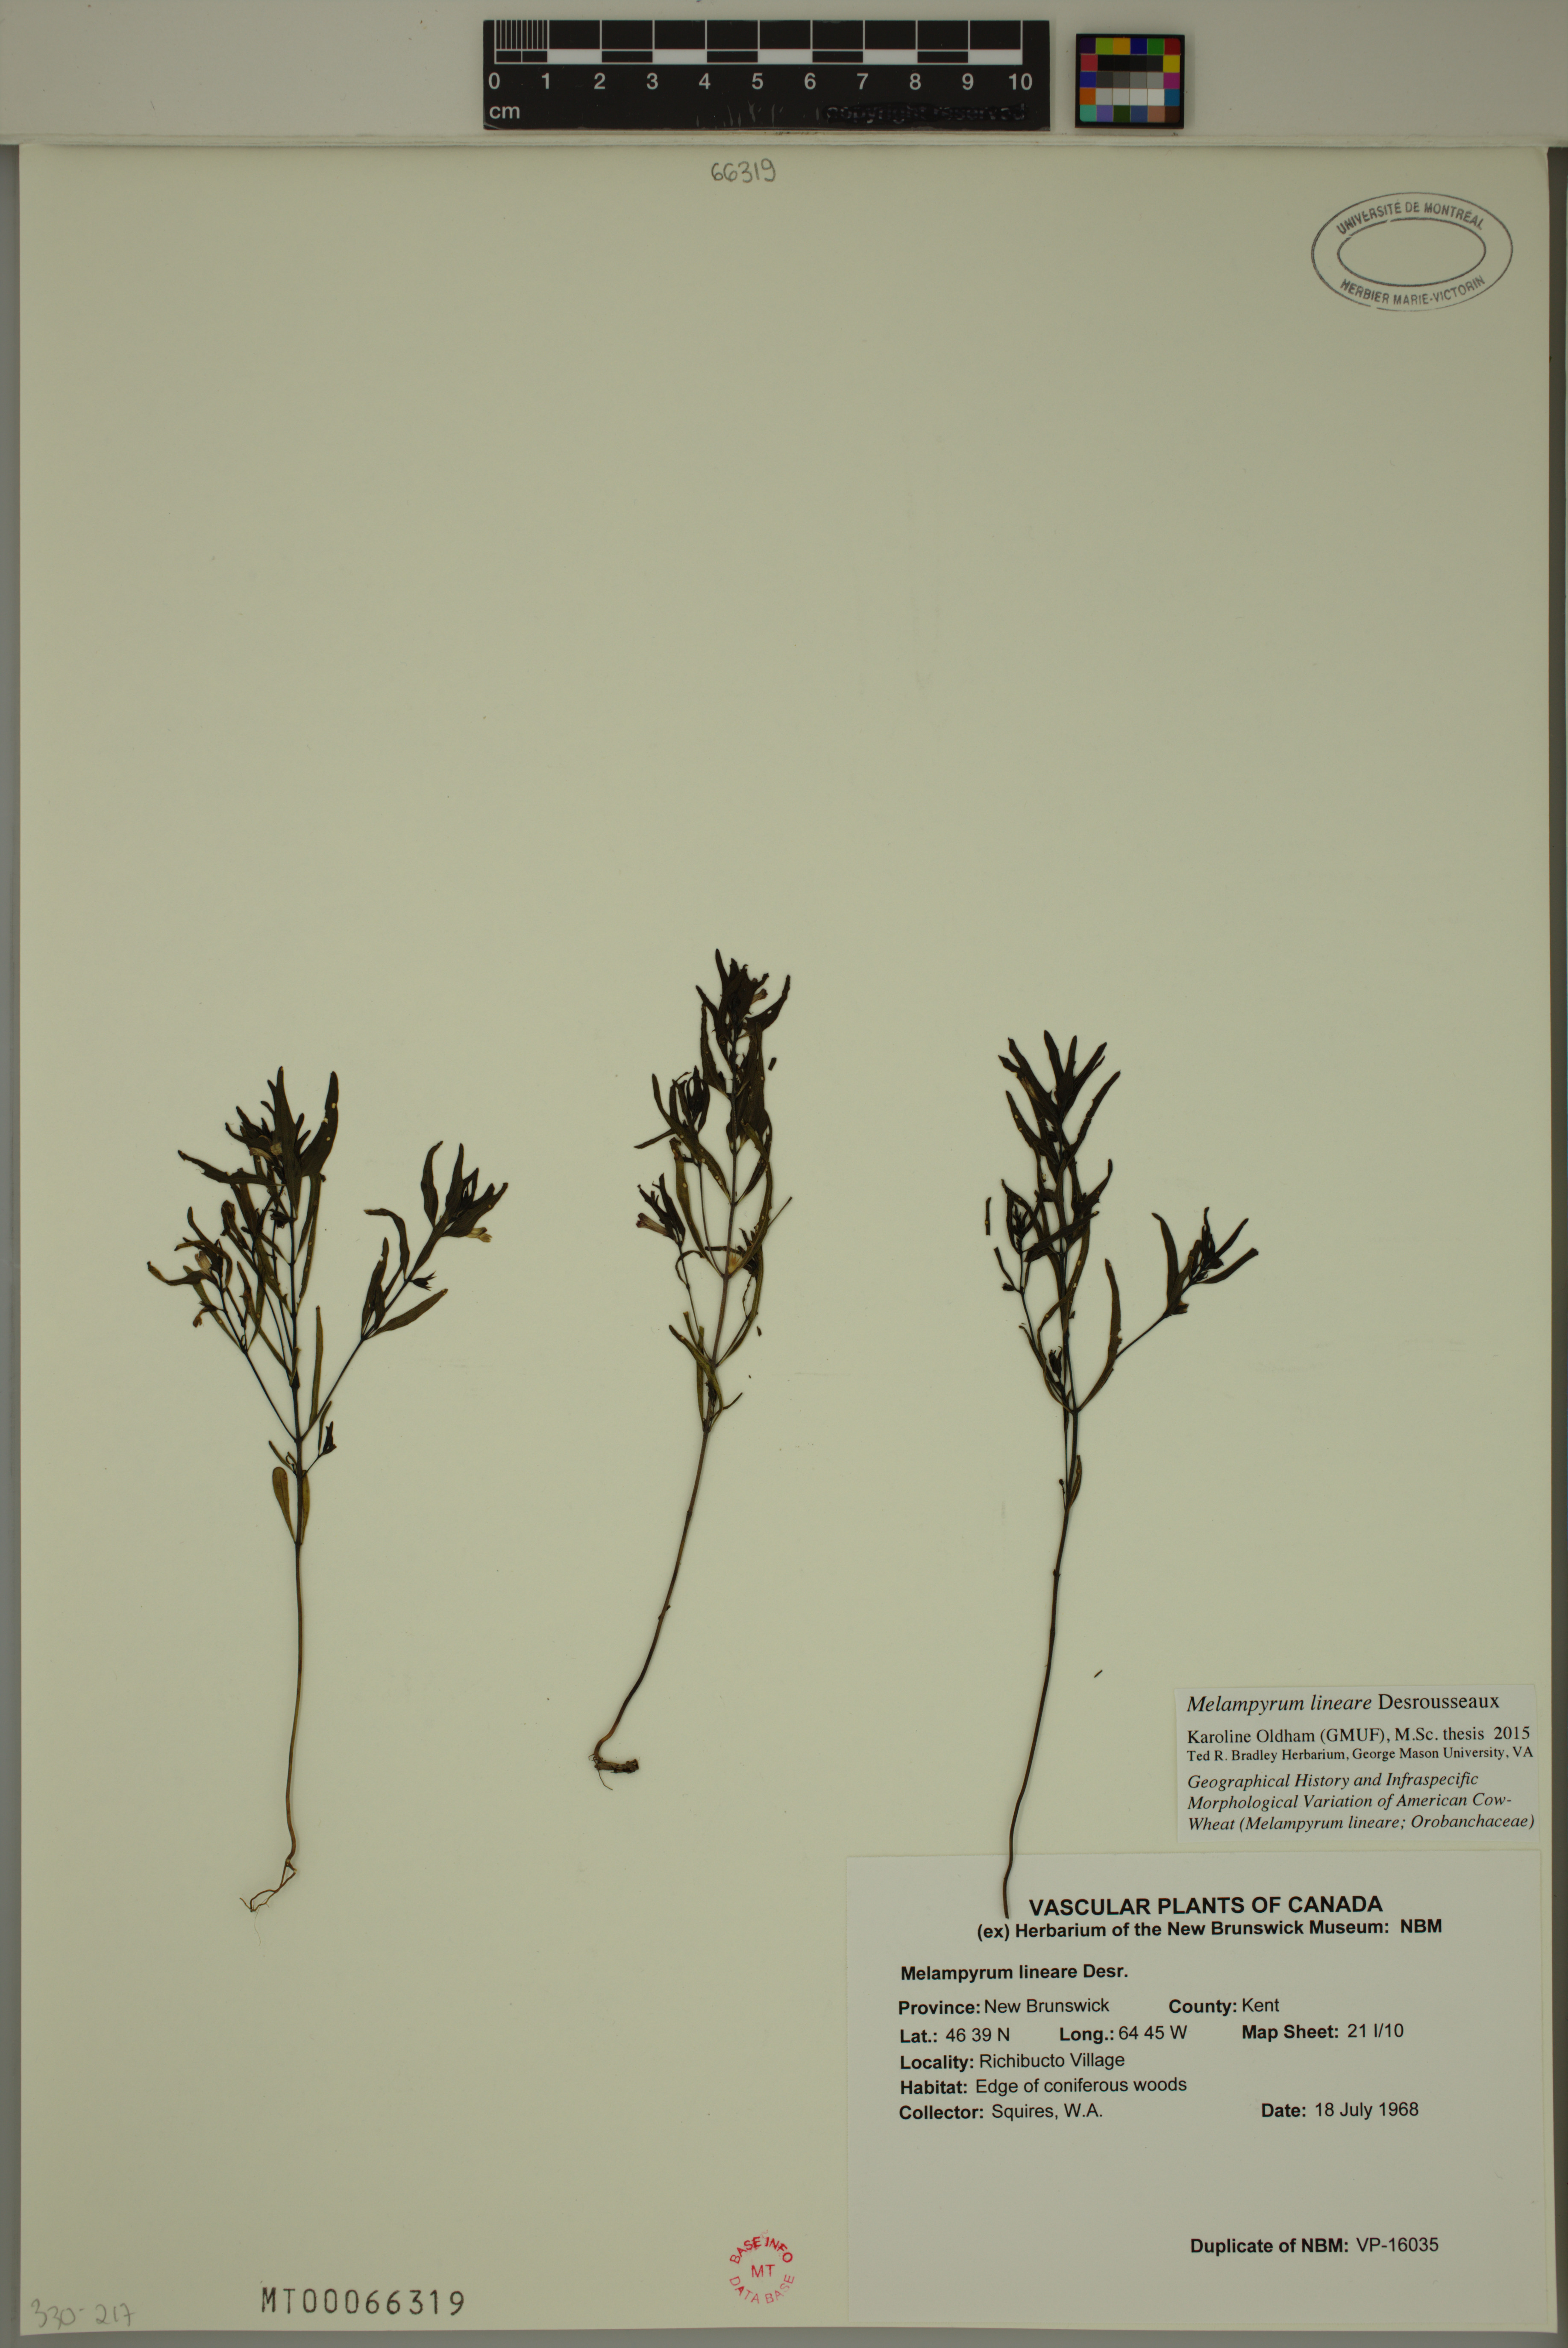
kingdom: Plantae
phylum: Tracheophyta
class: Magnoliopsida
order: Lamiales
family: Orobanchaceae
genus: Melampyrum
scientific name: Melampyrum lineare
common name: American cow-wheat
